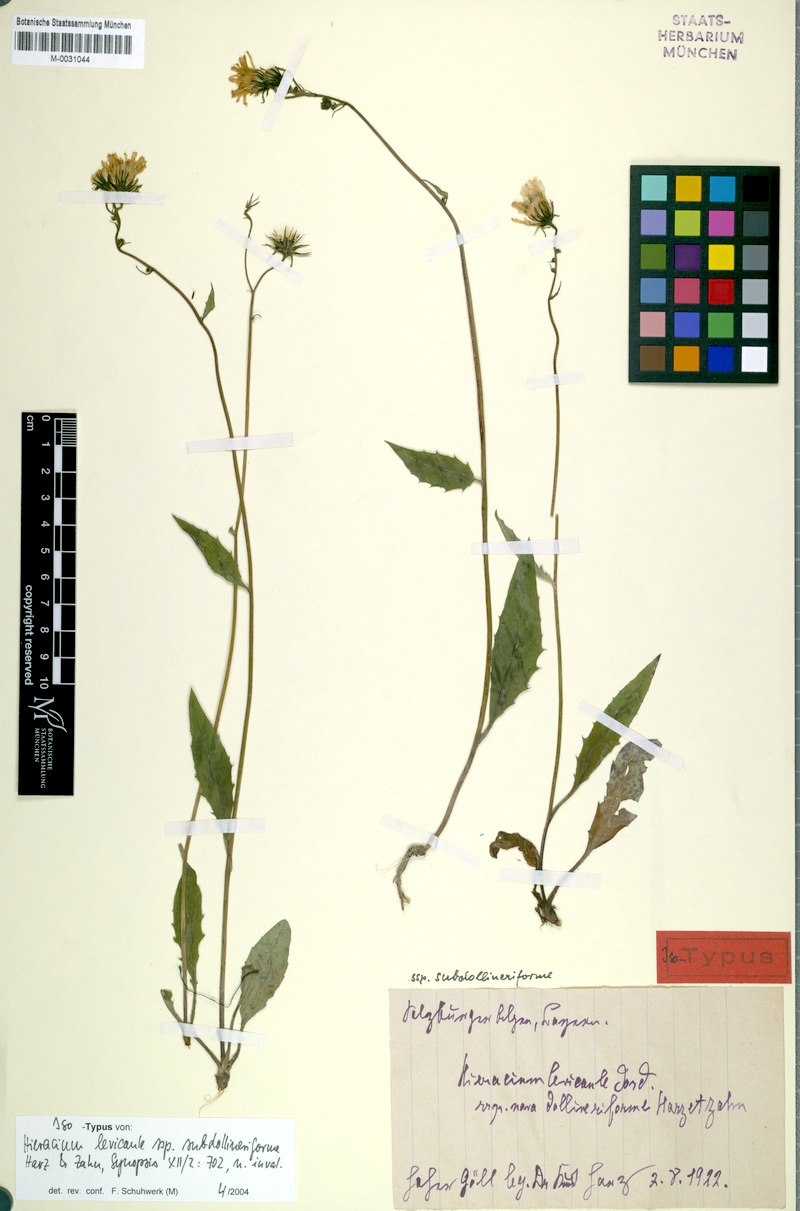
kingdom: Plantae
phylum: Tracheophyta
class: Magnoliopsida
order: Asterales
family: Asteraceae
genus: Hieracium
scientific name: Hieracium levicaule
